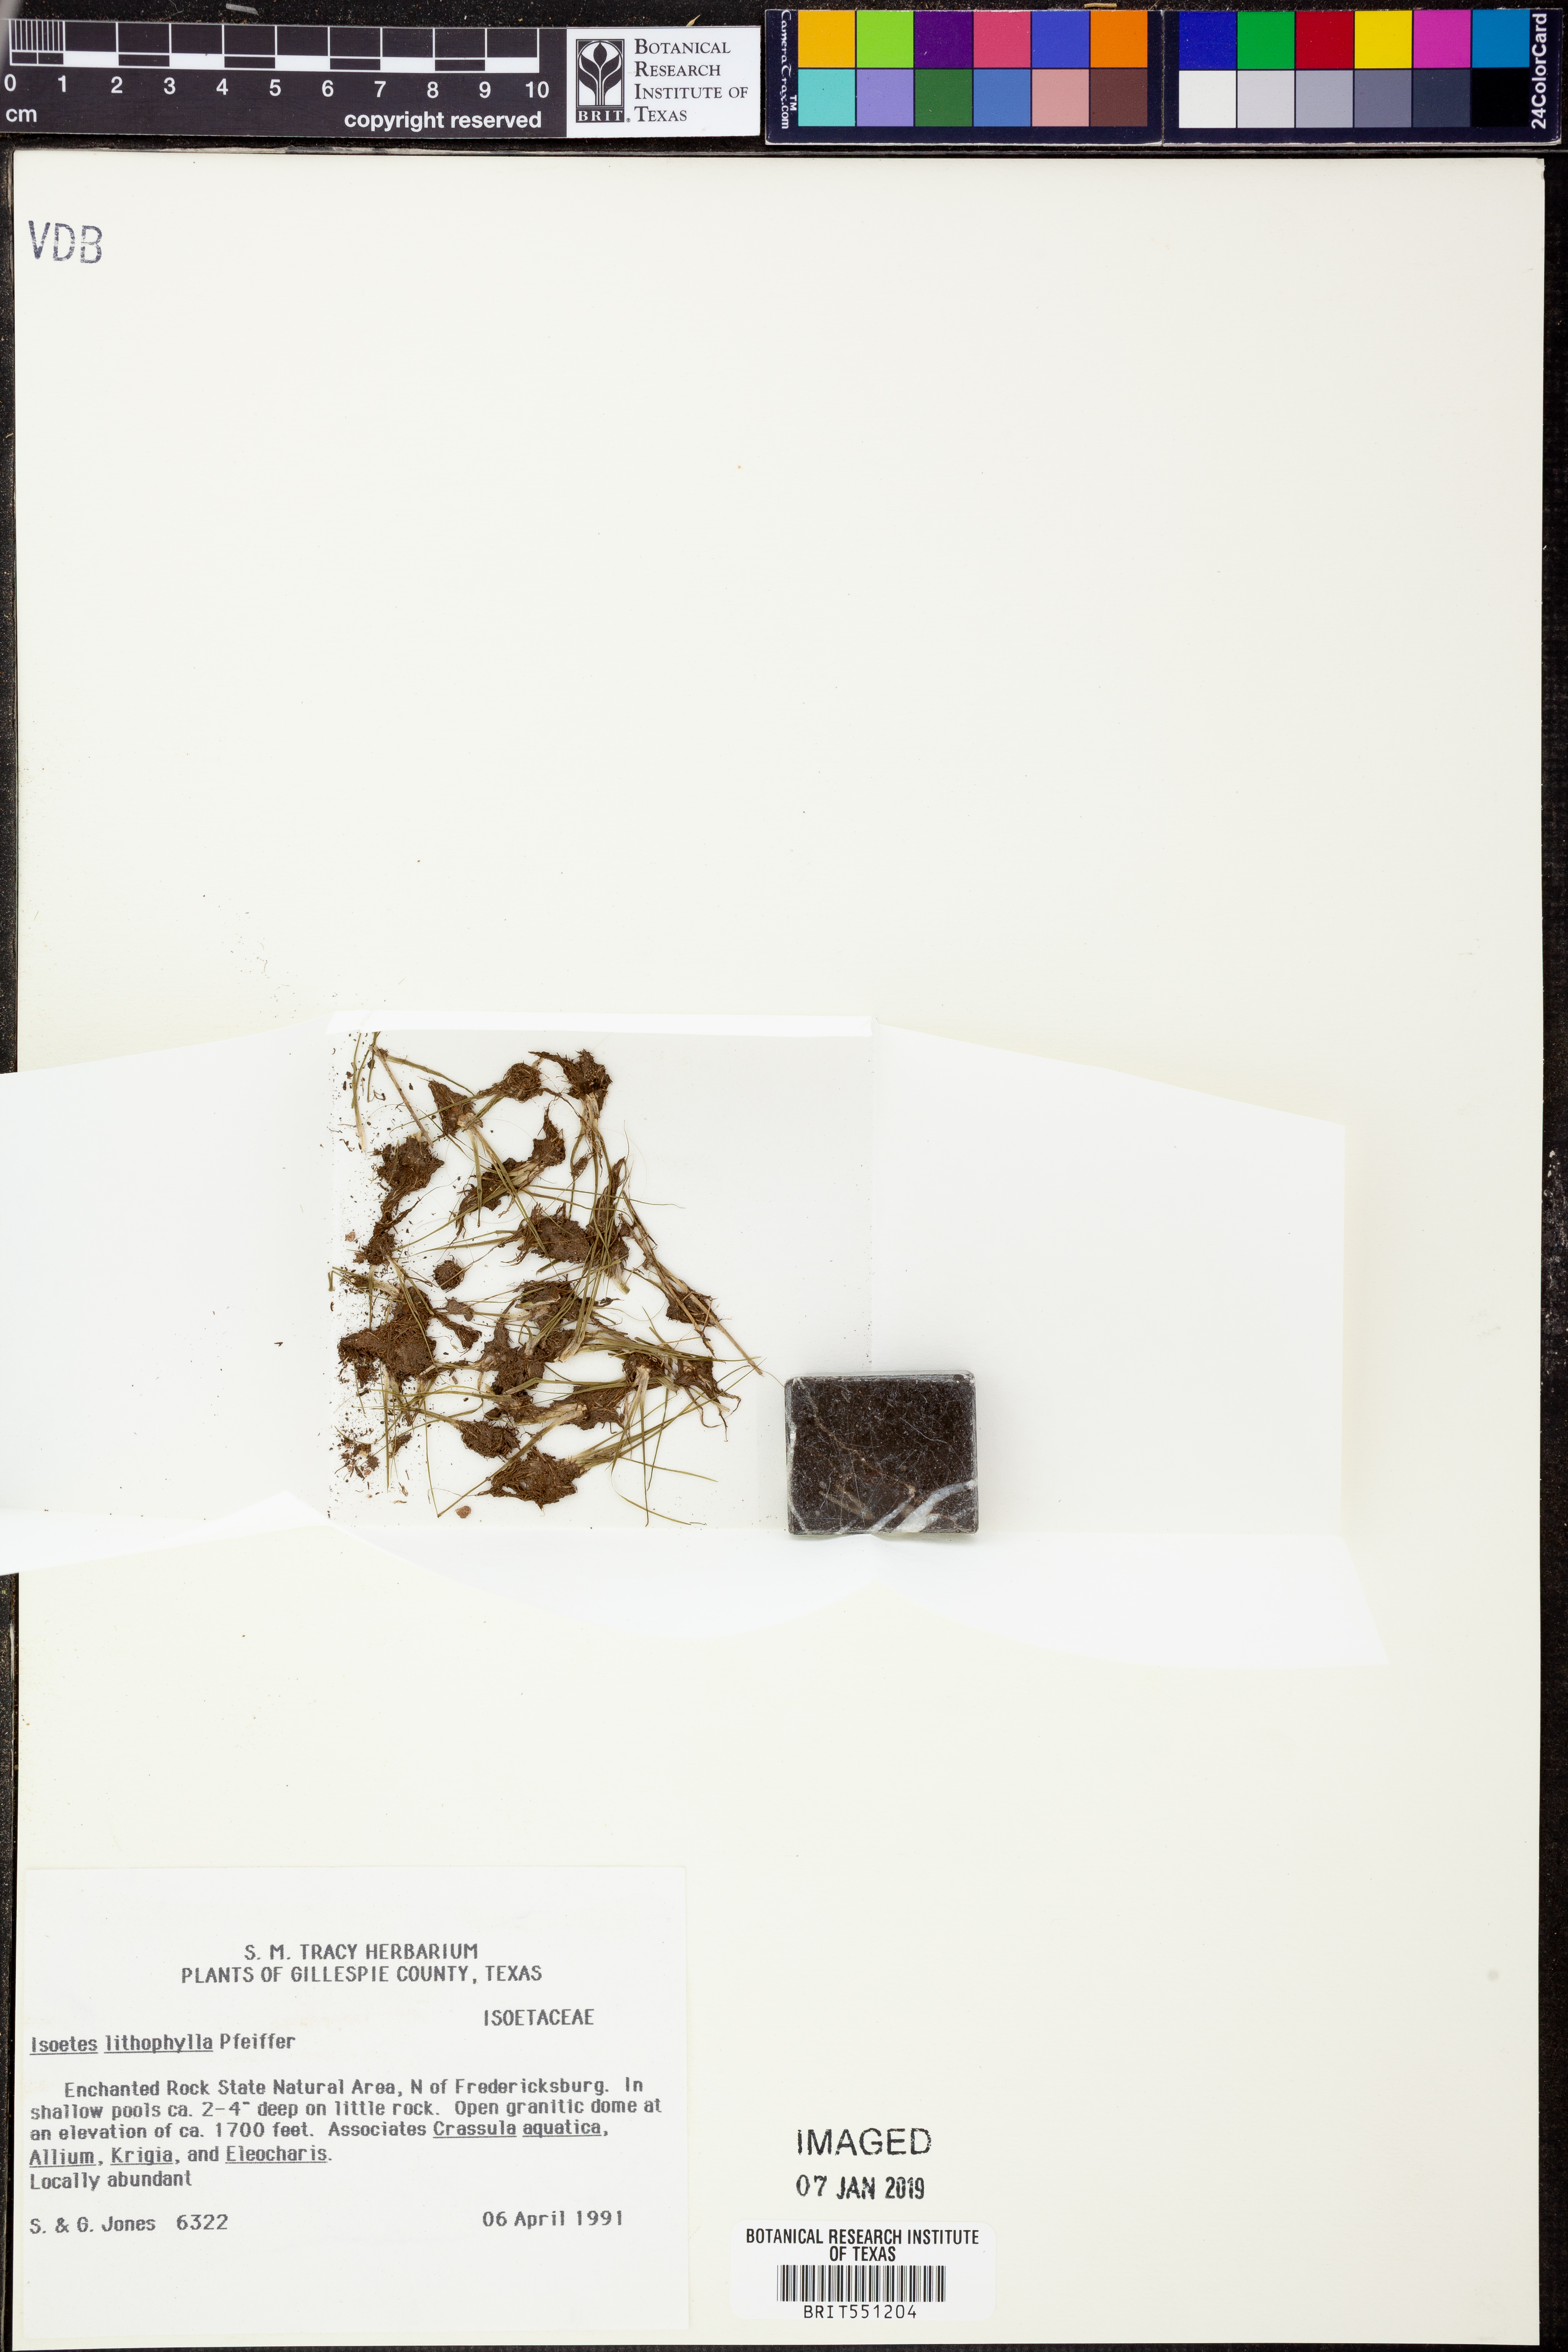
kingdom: Plantae
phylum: Tracheophyta
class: Lycopodiopsida
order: Isoetales
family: Isoetaceae
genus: Isoetes
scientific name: Isoetes lithophila
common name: Rock quillwort
